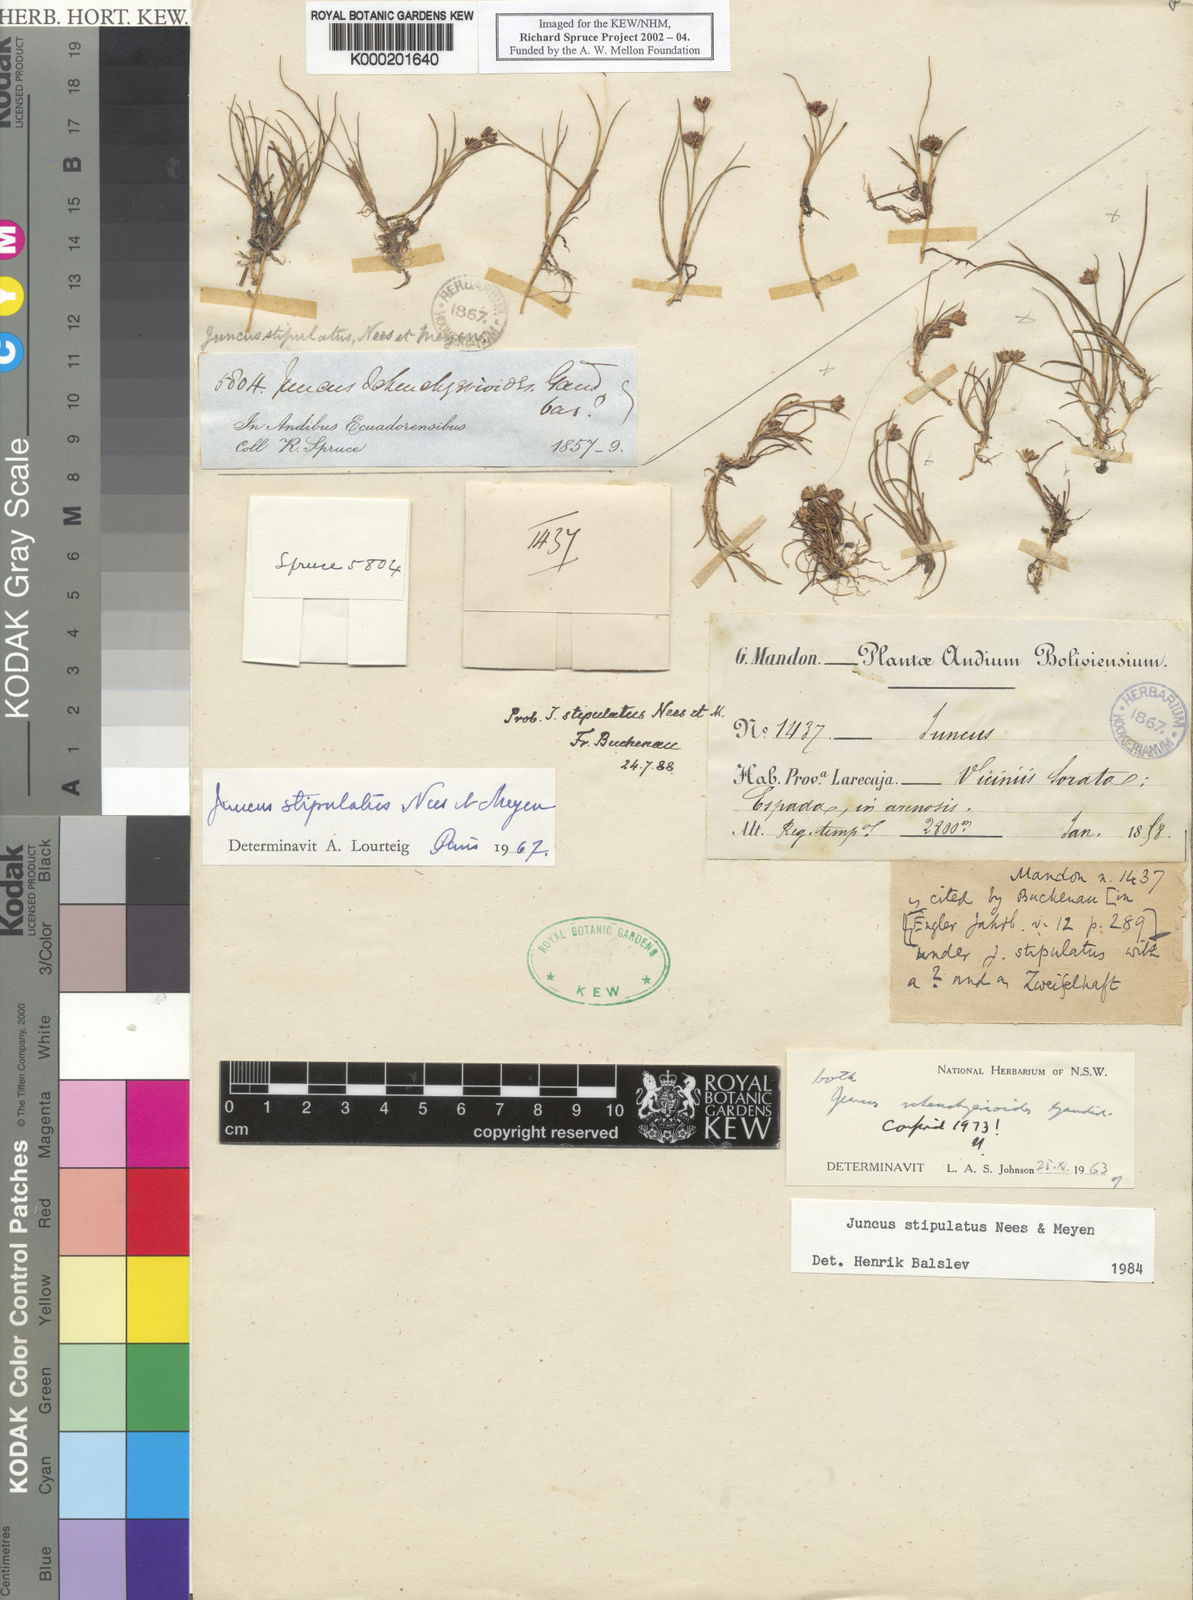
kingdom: Plantae
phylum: Tracheophyta
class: Liliopsida
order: Poales
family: Juncaceae
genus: Juncus
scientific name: Juncus scheuchzerioides
